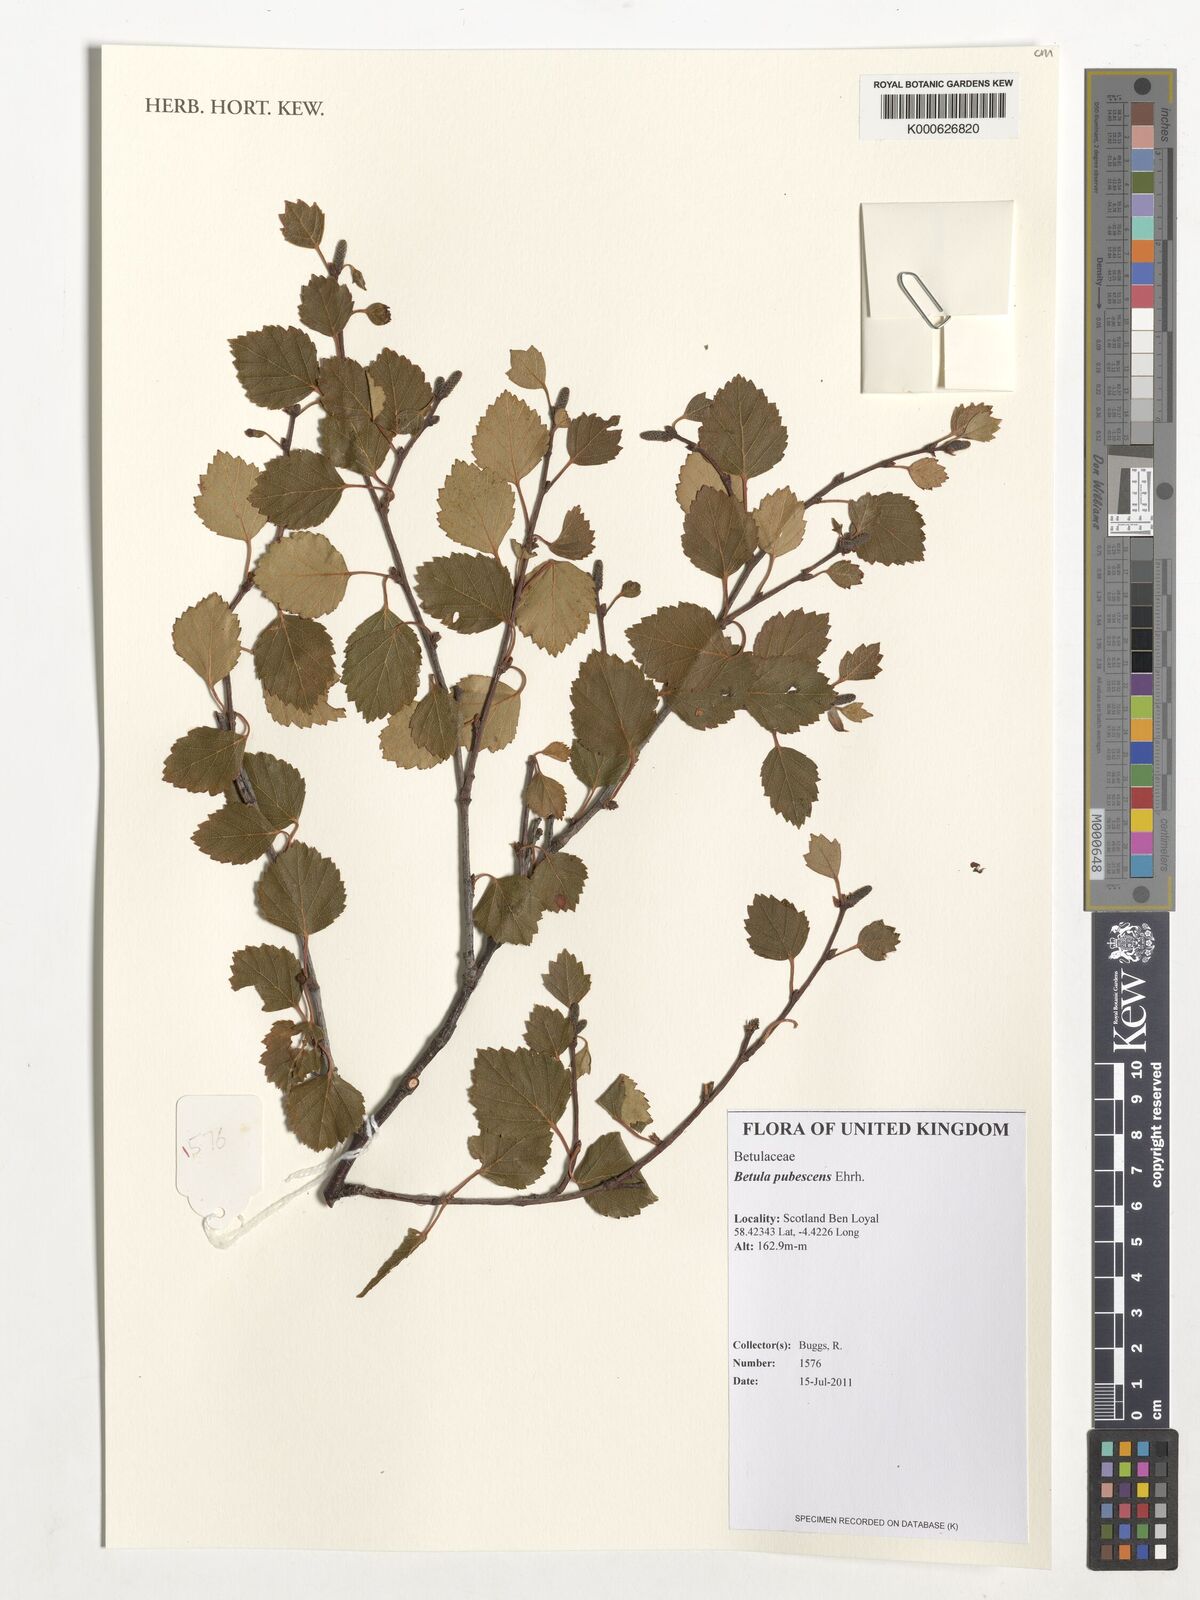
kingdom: Plantae
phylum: Tracheophyta
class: Magnoliopsida
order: Fagales
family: Betulaceae
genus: Betula
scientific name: Betula pubescens
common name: Downy birch
